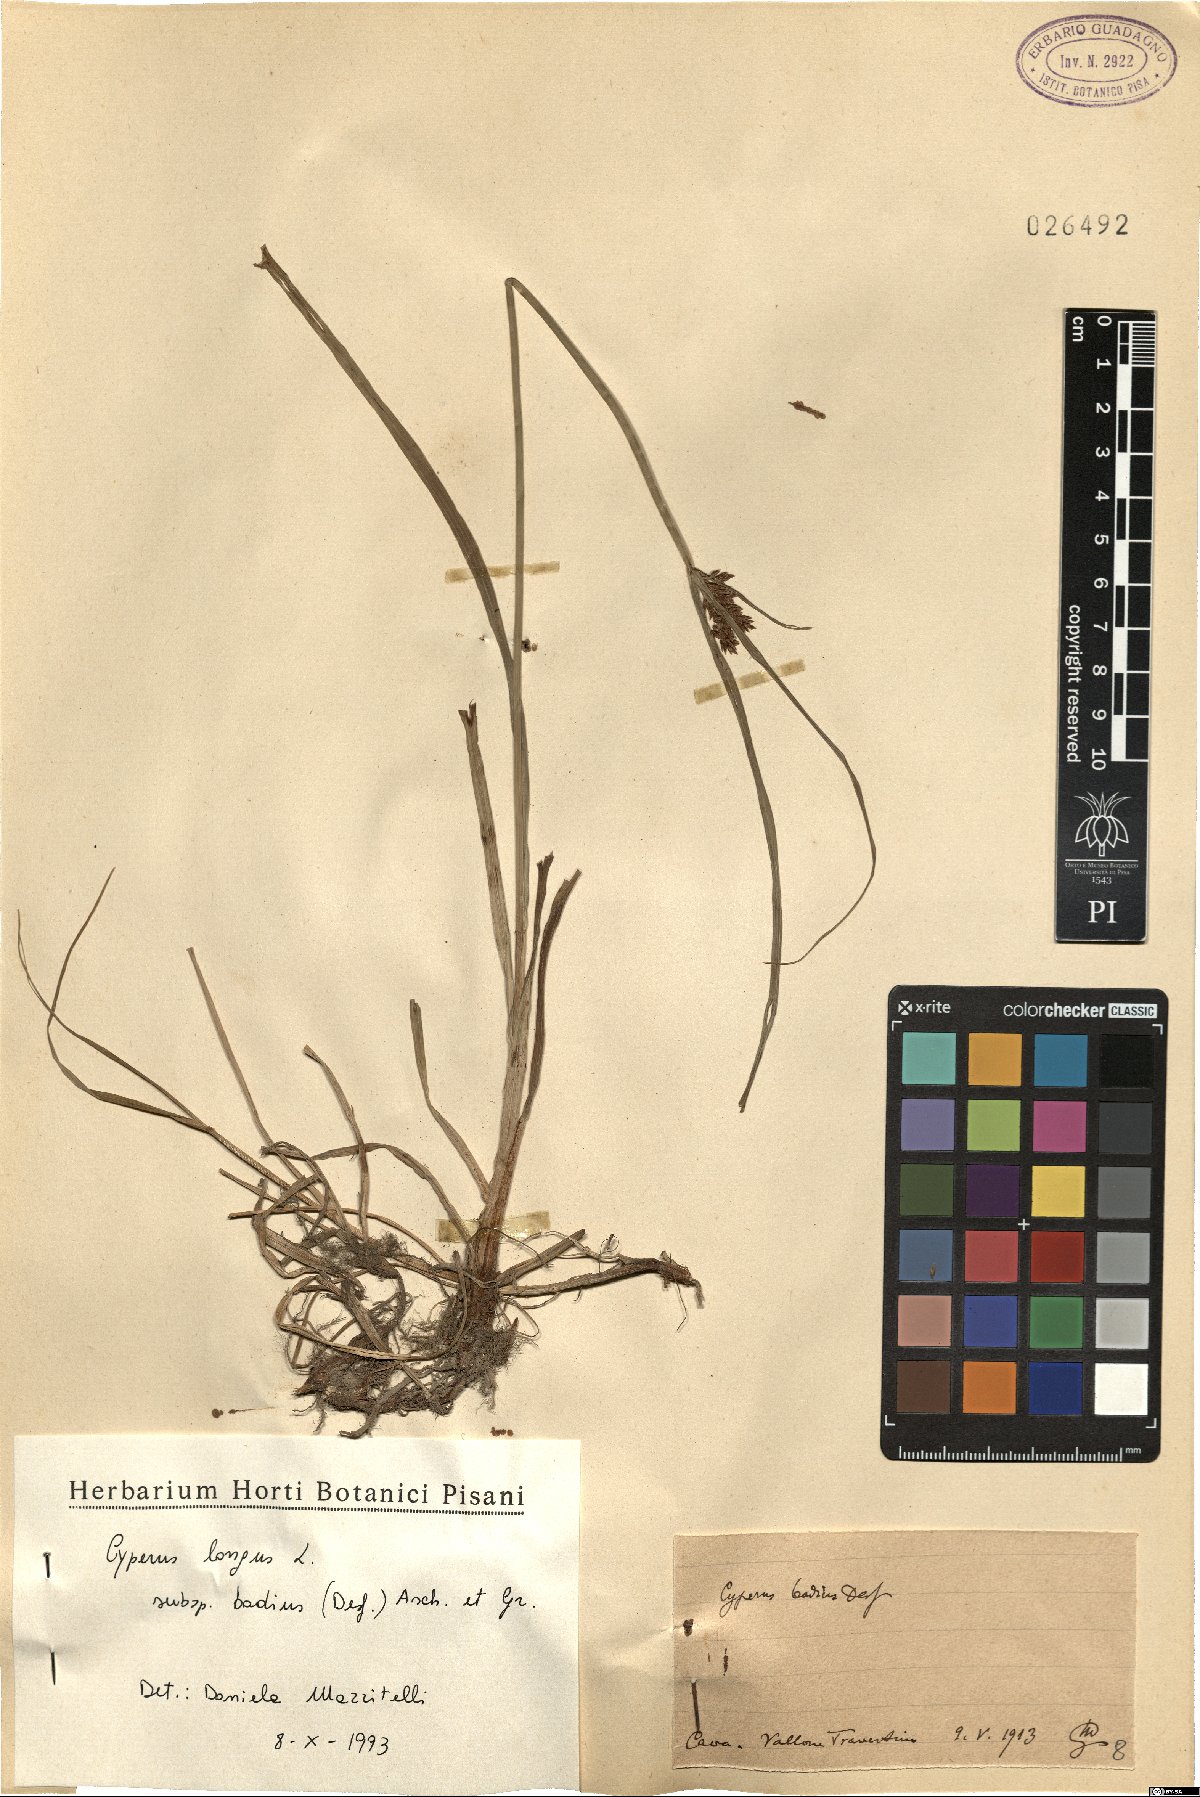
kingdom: Plantae
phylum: Tracheophyta
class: Liliopsida
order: Poales
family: Cyperaceae
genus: Cyperus
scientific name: Cyperus longus
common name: Galingale
